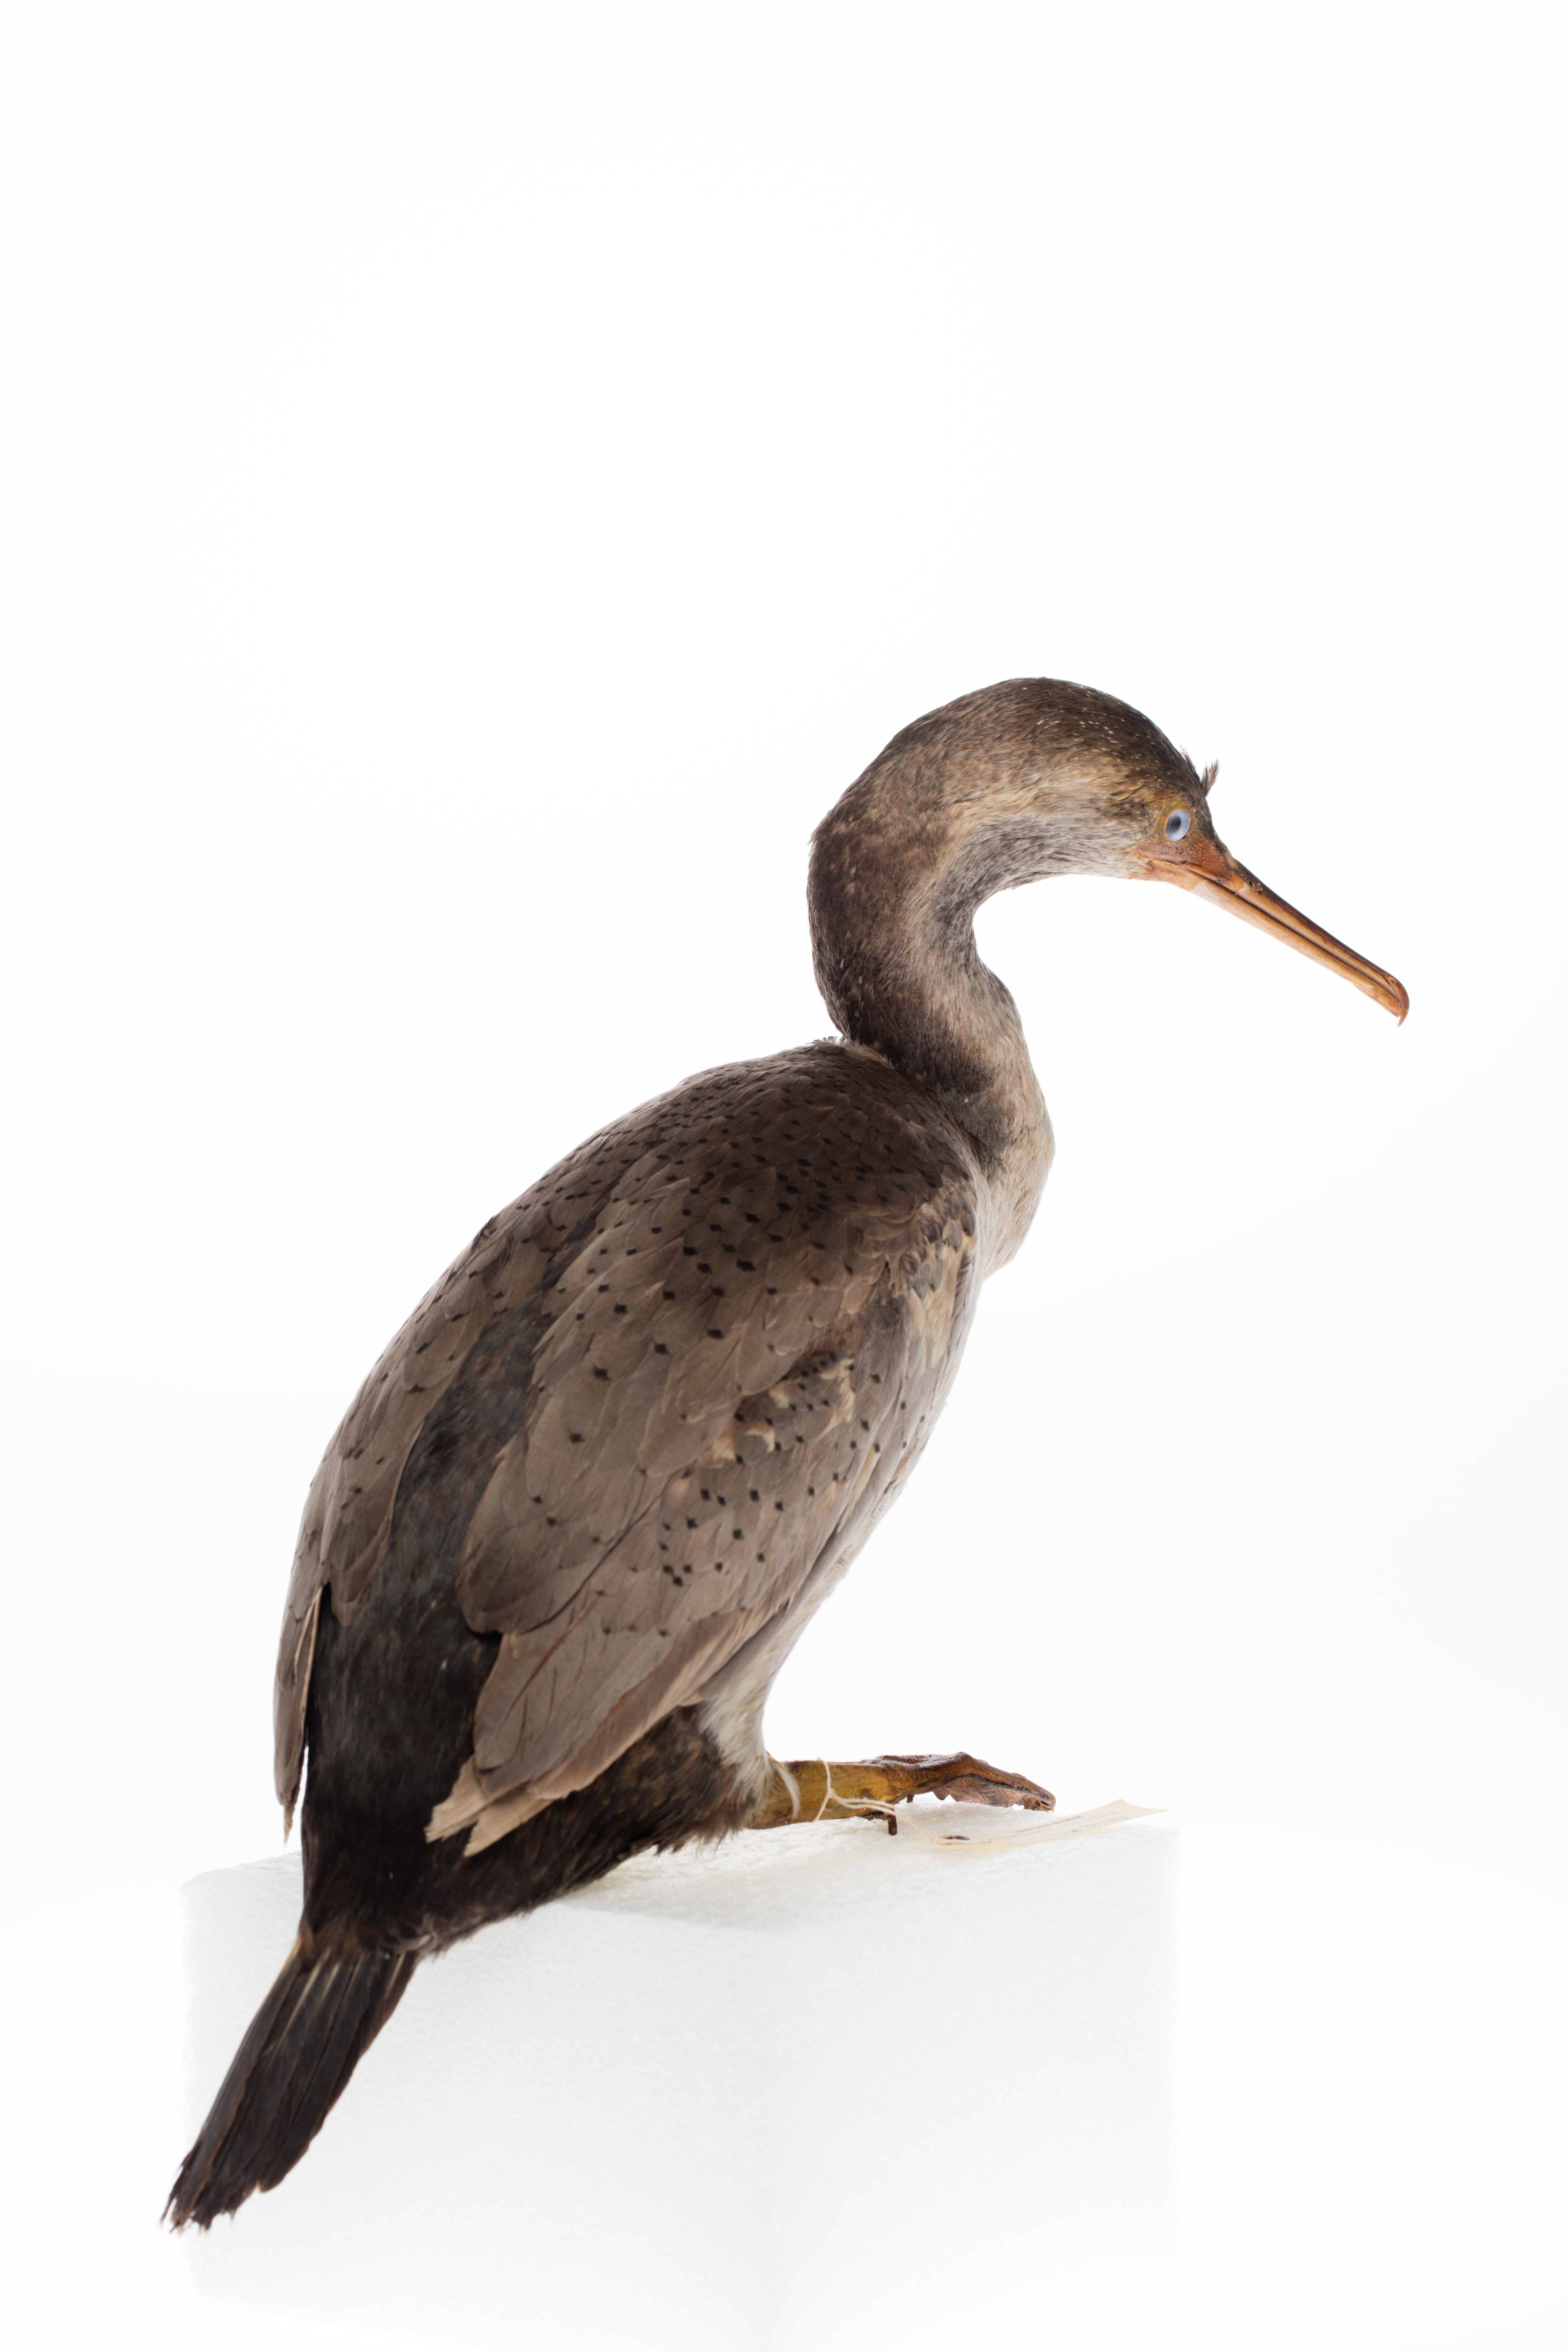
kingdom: Animalia
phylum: Chordata
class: Aves
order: Suliformes
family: Phalacrocoracidae
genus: Phalacrocorax
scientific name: Phalacrocorax punctatus
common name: Spotted shag
